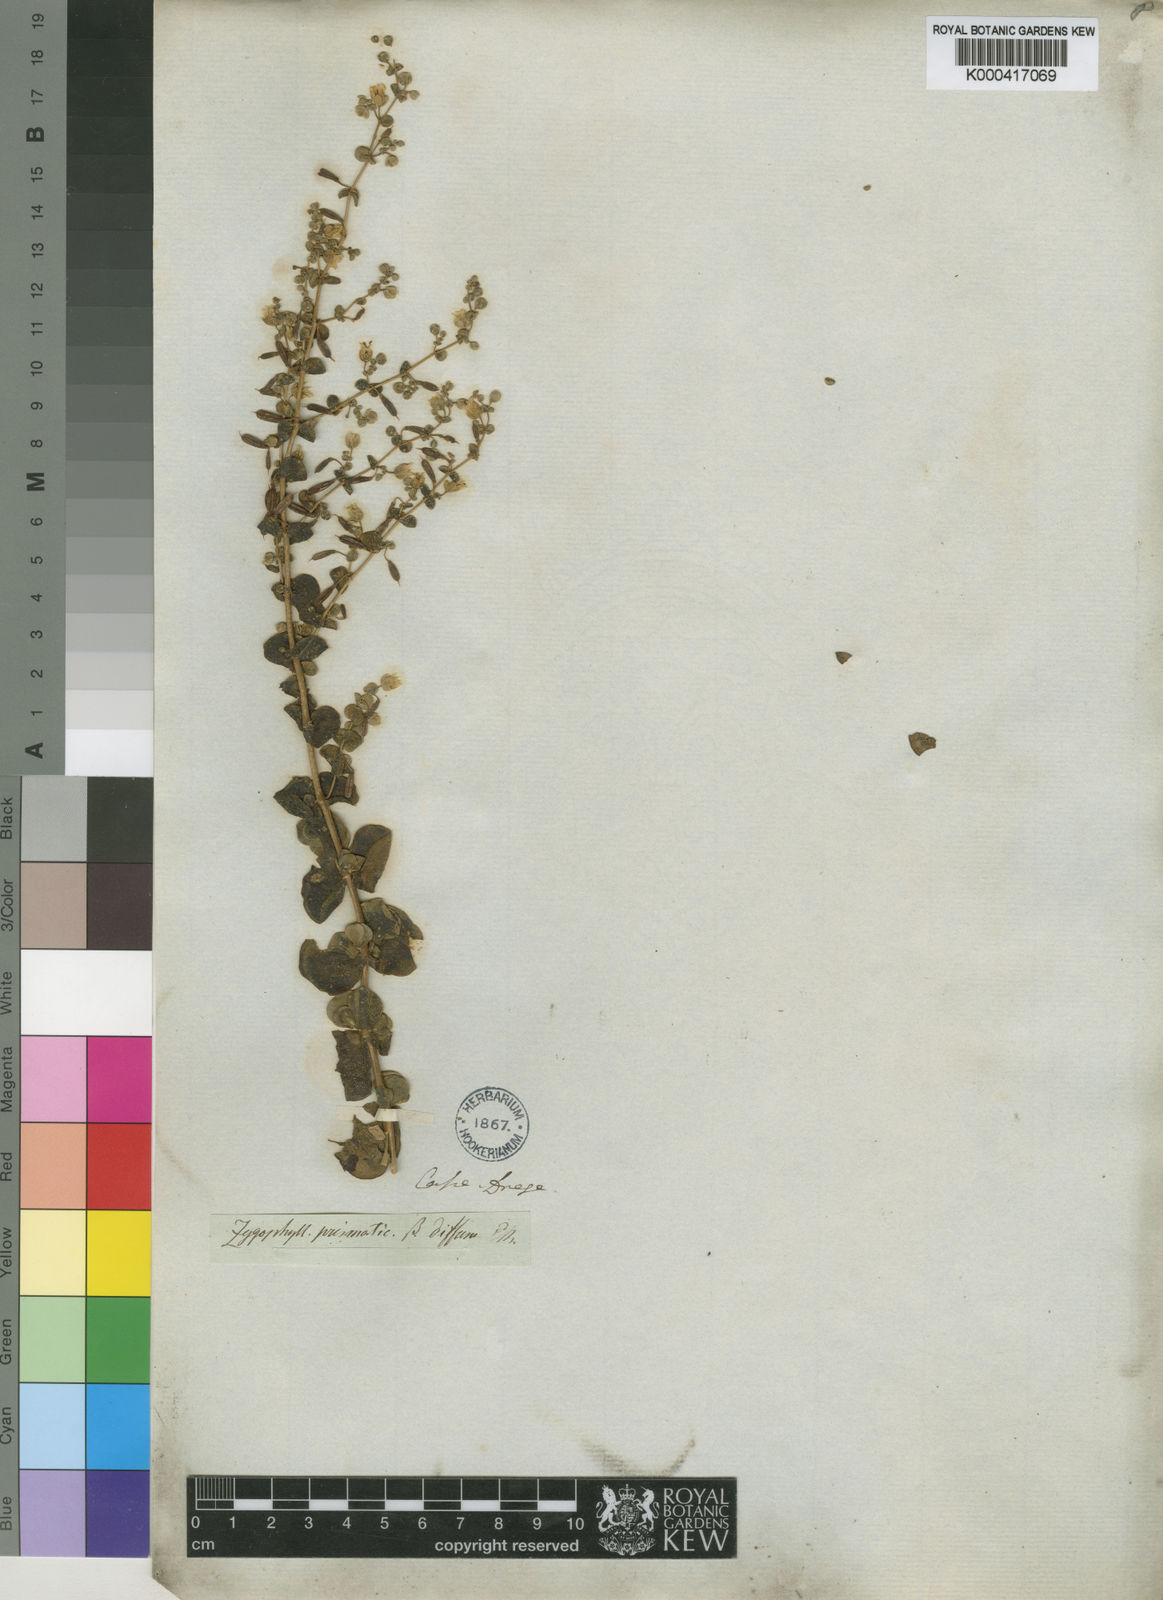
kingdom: Plantae
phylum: Tracheophyta
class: Magnoliopsida
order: Zygophyllales
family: Zygophyllaceae
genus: Tetraena
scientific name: Tetraena prismatocarpa
